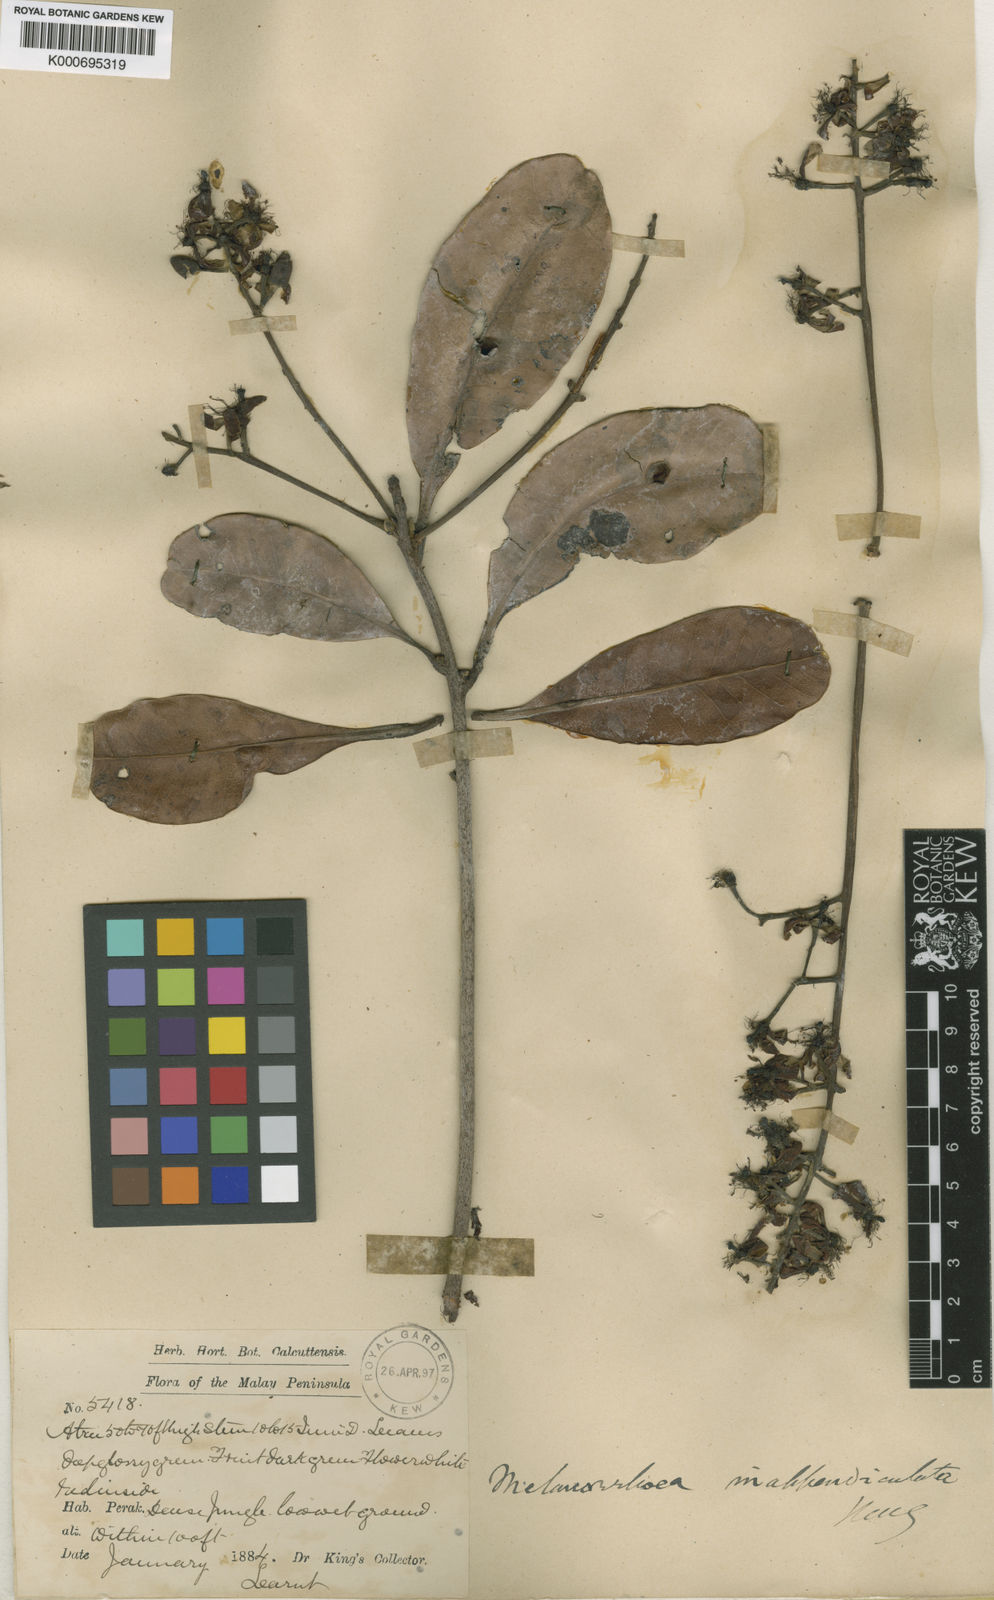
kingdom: Plantae
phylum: Tracheophyta
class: Magnoliopsida
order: Sapindales
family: Anacardiaceae
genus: Gluta
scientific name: Gluta aptera
